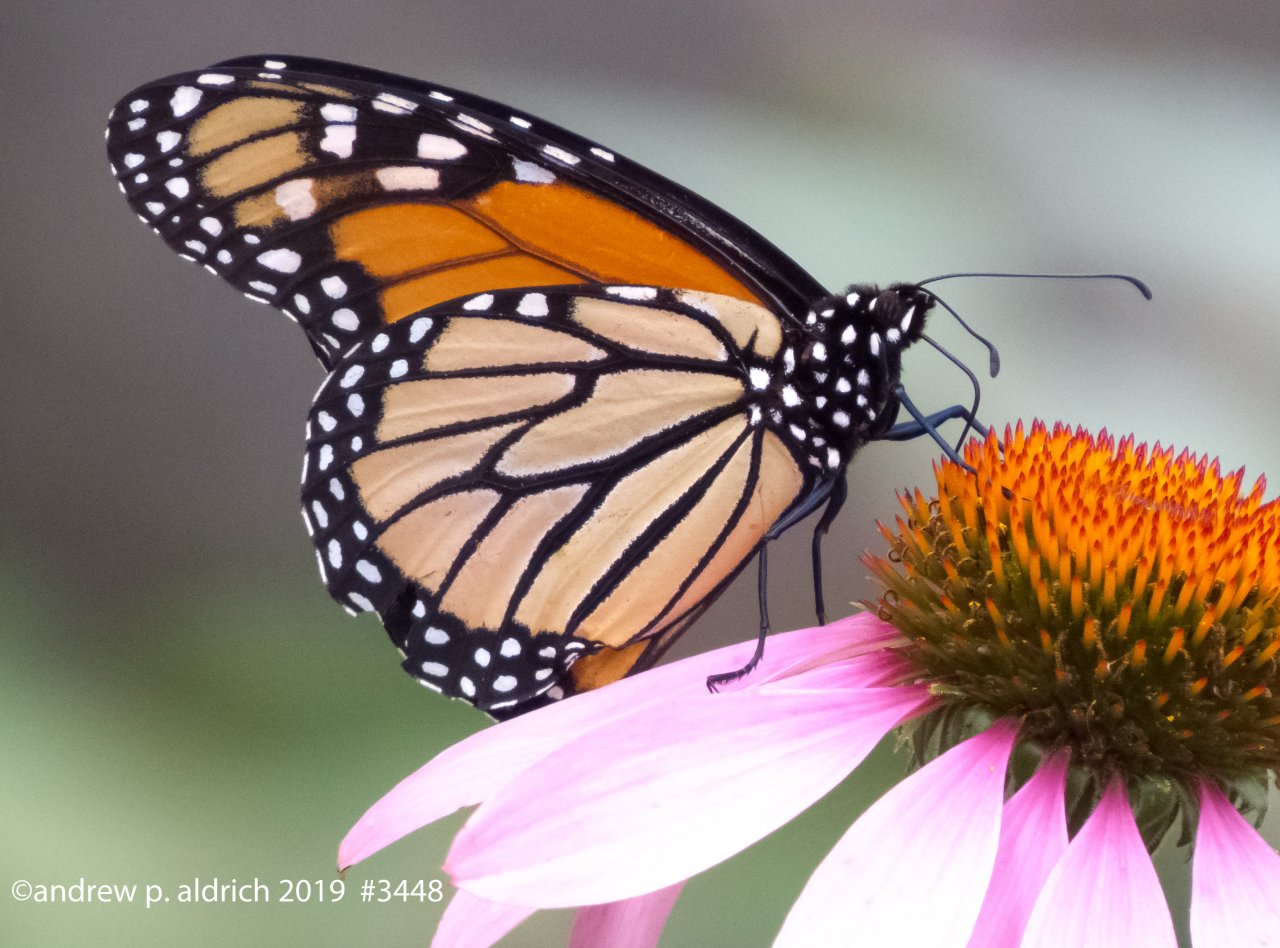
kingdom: Animalia
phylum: Arthropoda
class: Insecta
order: Lepidoptera
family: Nymphalidae
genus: Danaus
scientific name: Danaus plexippus
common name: Monarch
